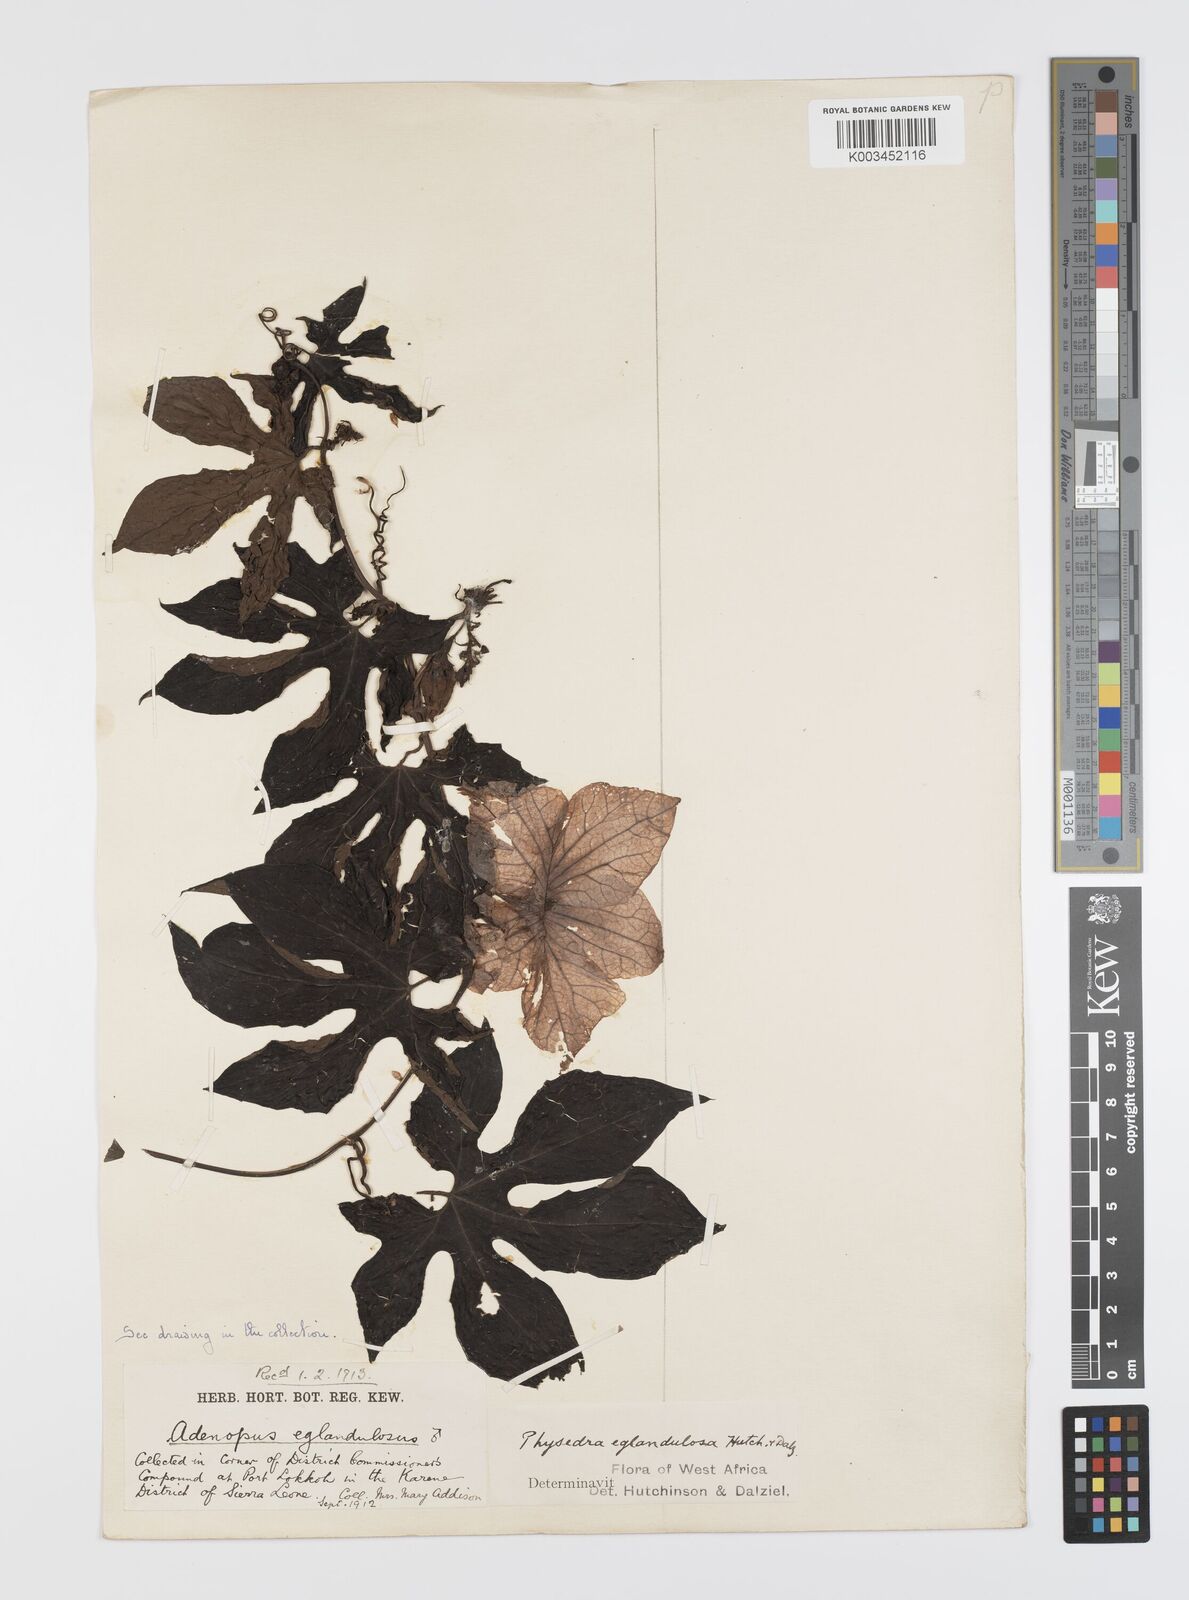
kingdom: Plantae
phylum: Tracheophyta
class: Magnoliopsida
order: Cucurbitales
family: Cucurbitaceae
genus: Ruthalicia
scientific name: Ruthalicia eglandulosa
